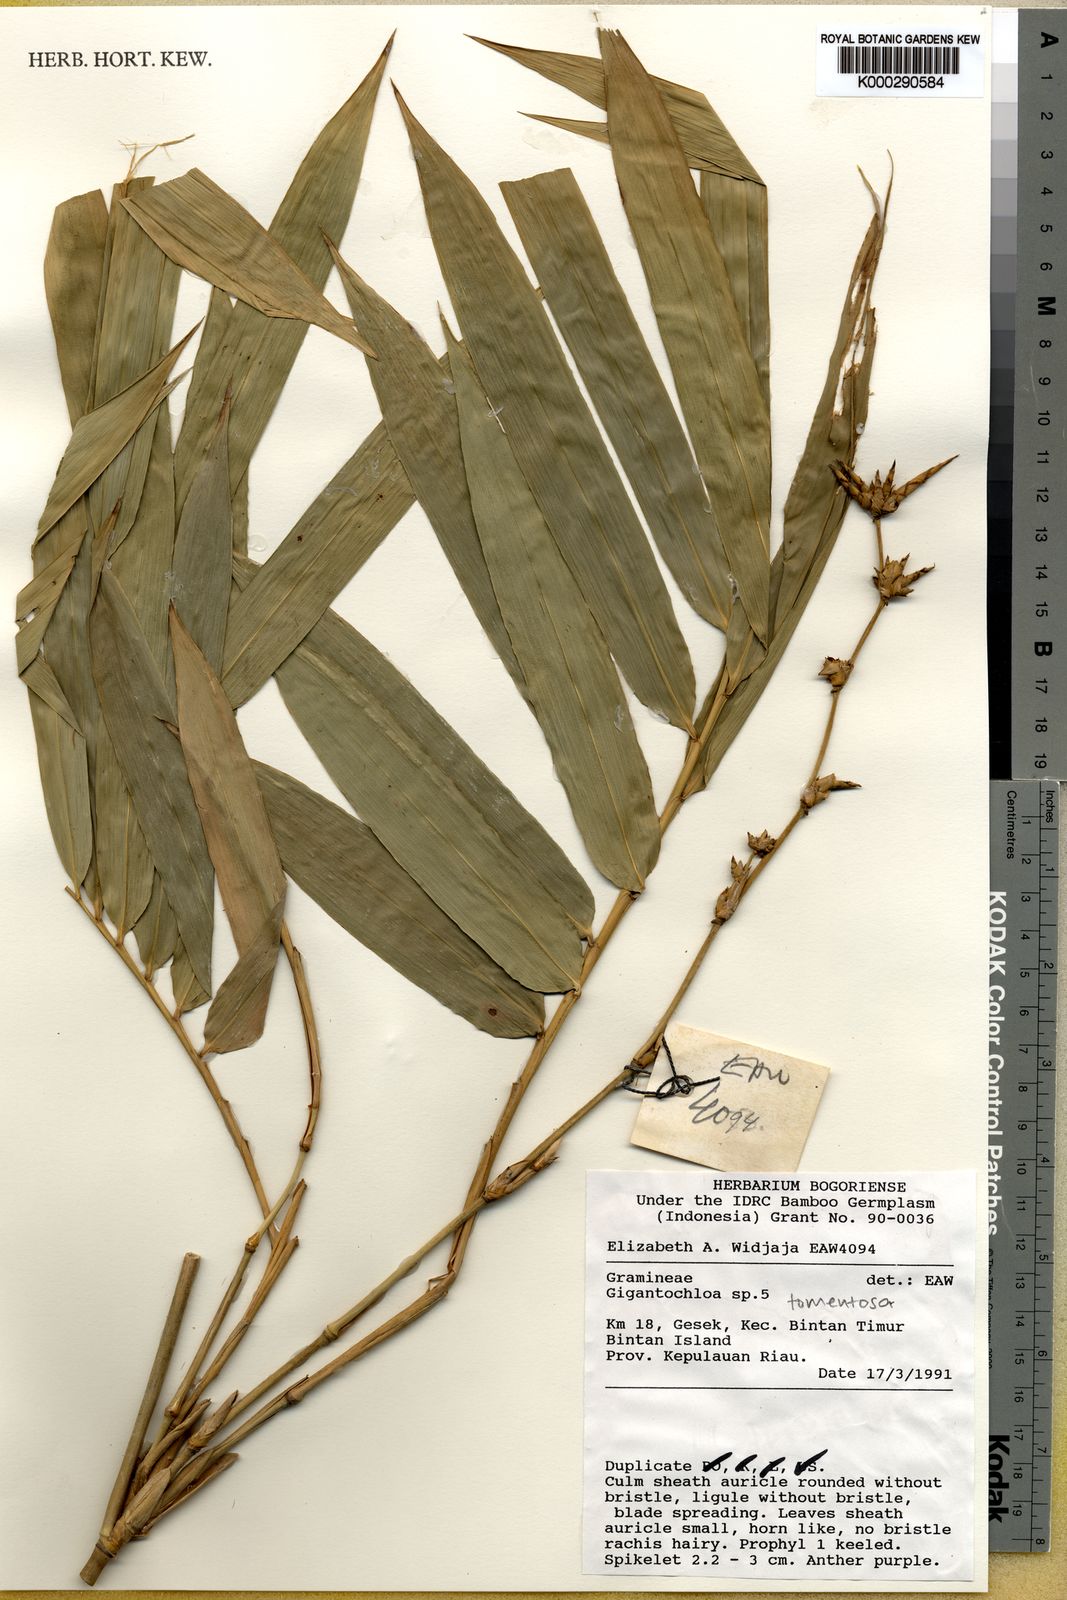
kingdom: Plantae
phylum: Tracheophyta
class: Liliopsida
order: Poales
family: Poaceae
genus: Gigantochloa
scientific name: Gigantochloa tomentosa
